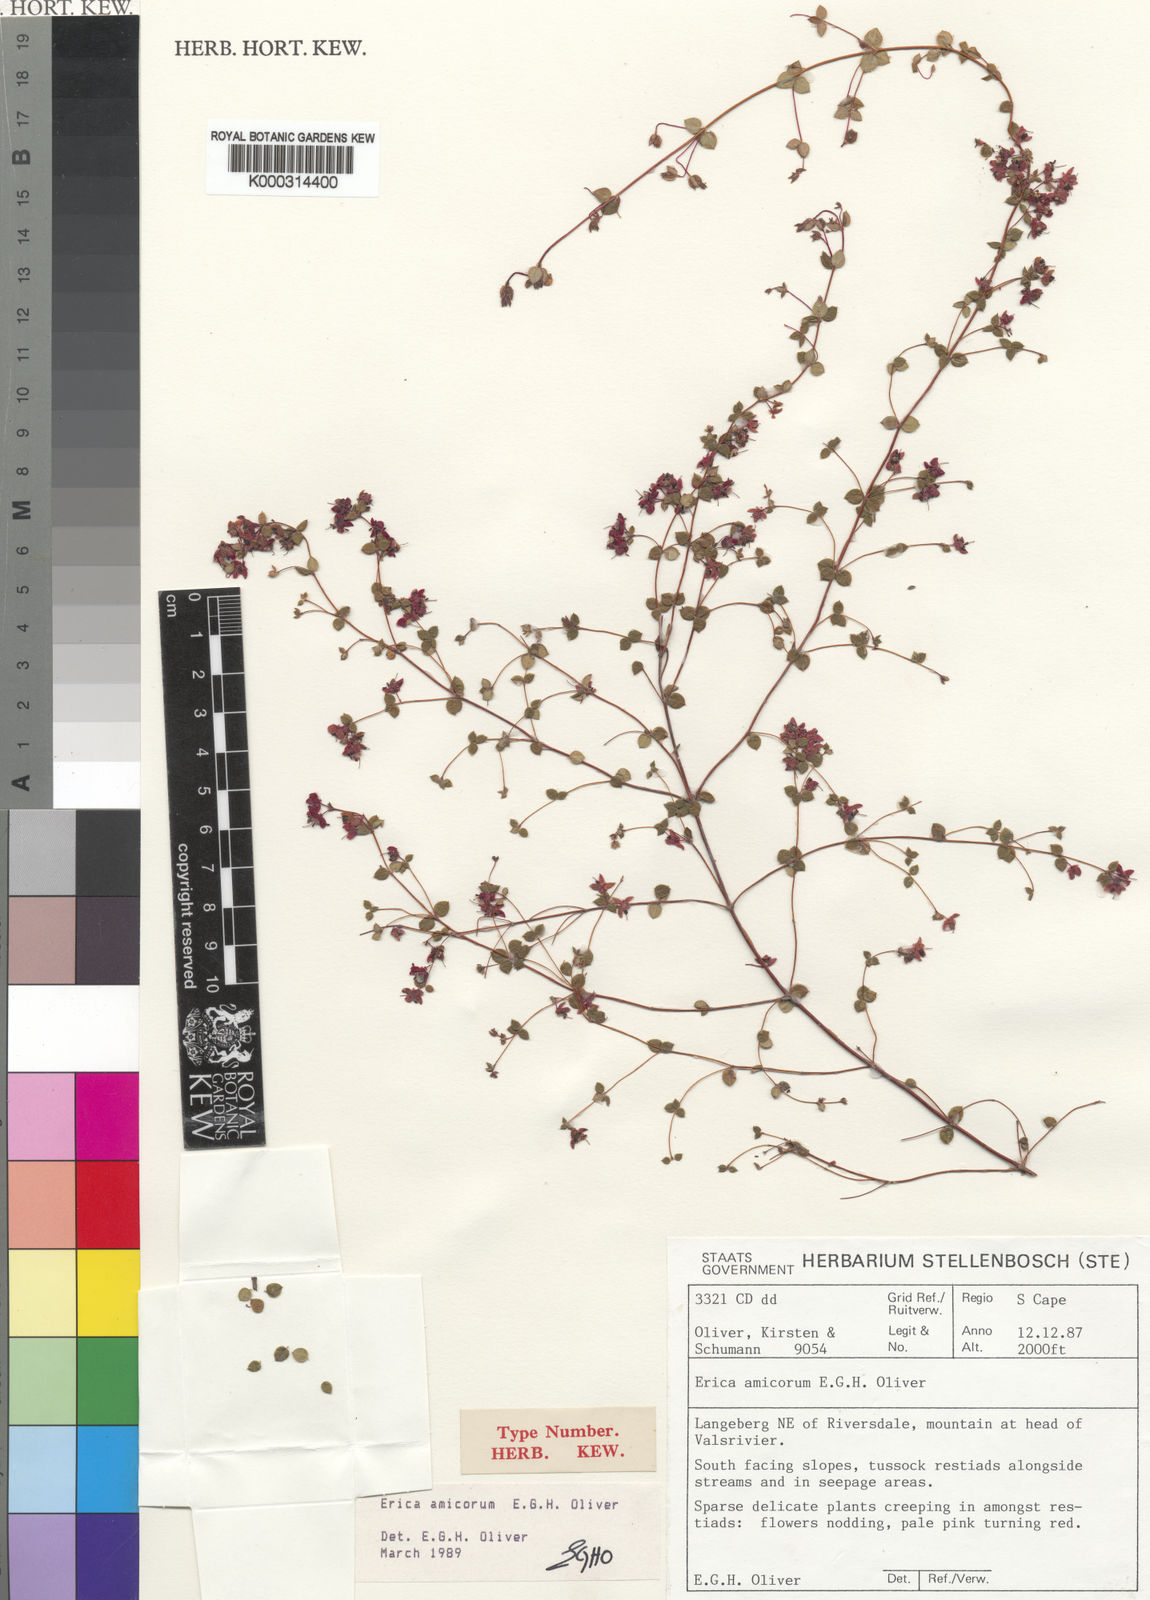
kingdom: Plantae
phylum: Tracheophyta
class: Magnoliopsida
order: Ericales
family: Ericaceae
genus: Erica
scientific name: Erica amicorum
